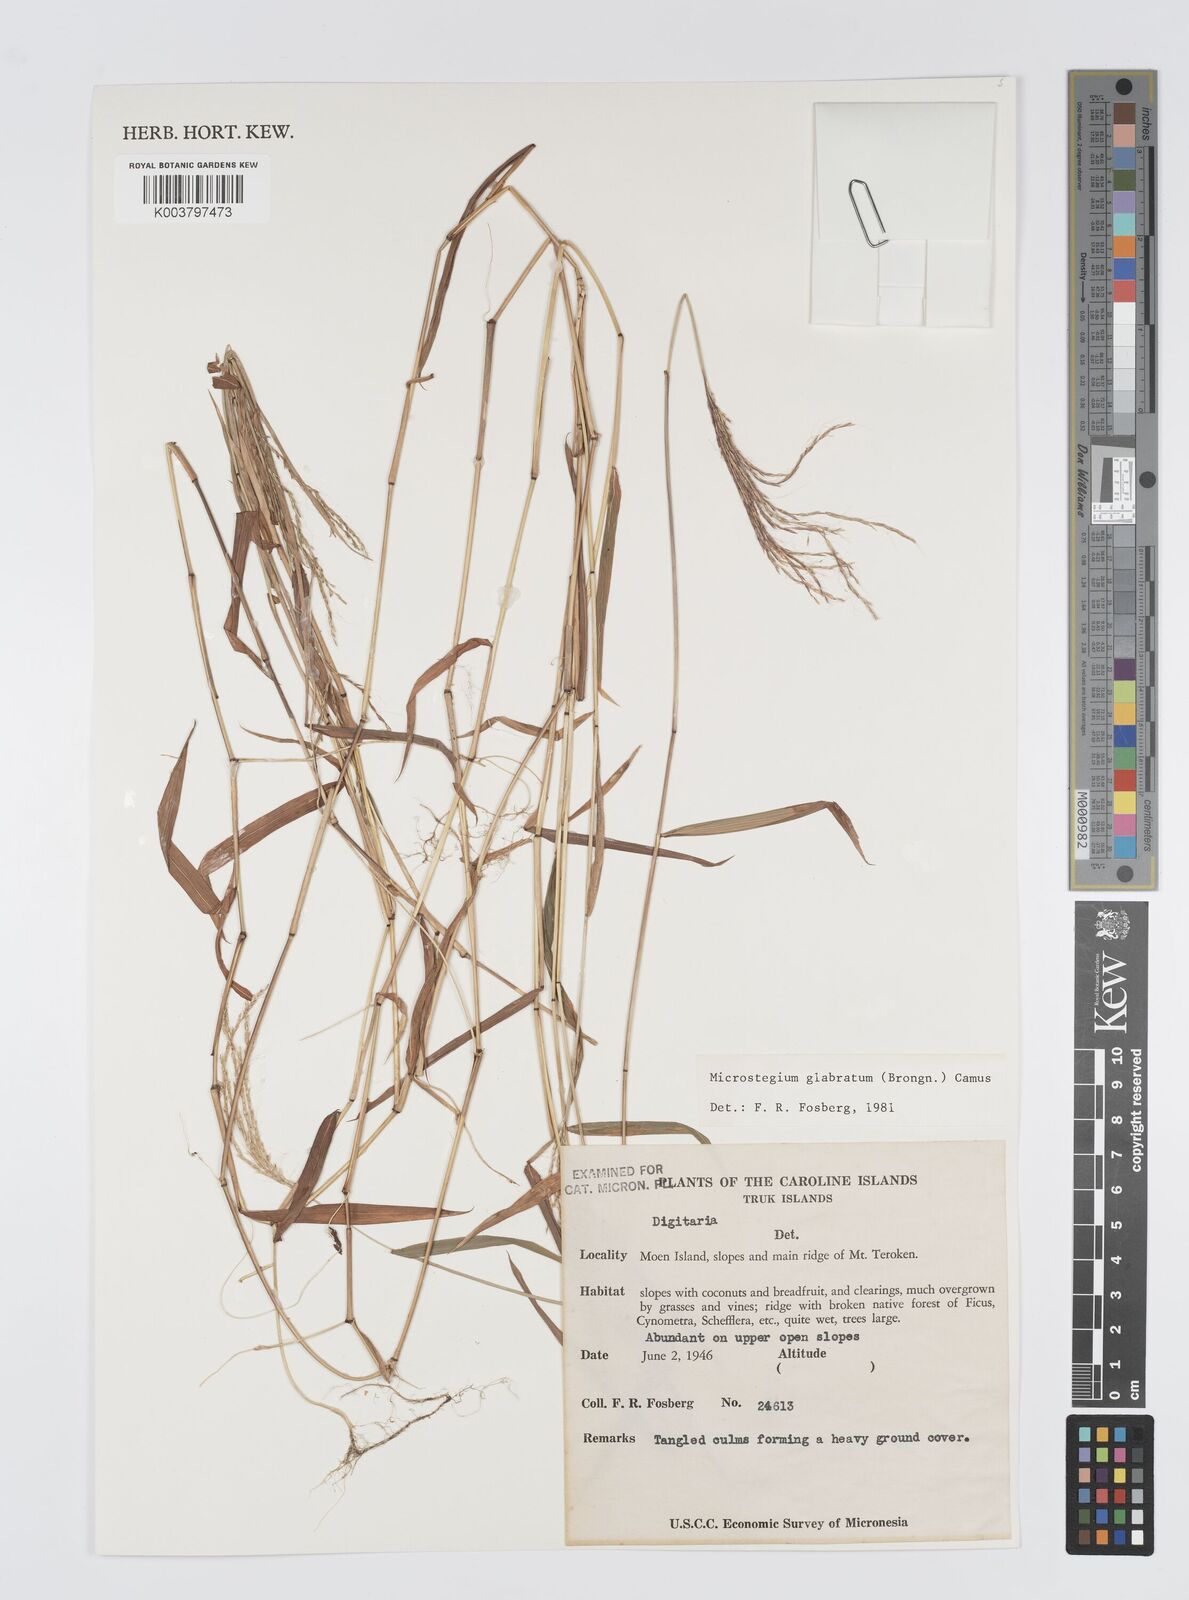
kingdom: Plantae
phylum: Tracheophyta
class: Liliopsida
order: Poales
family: Poaceae
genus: Digitaria
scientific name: Digitaria setigera
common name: East indian crabgrass
